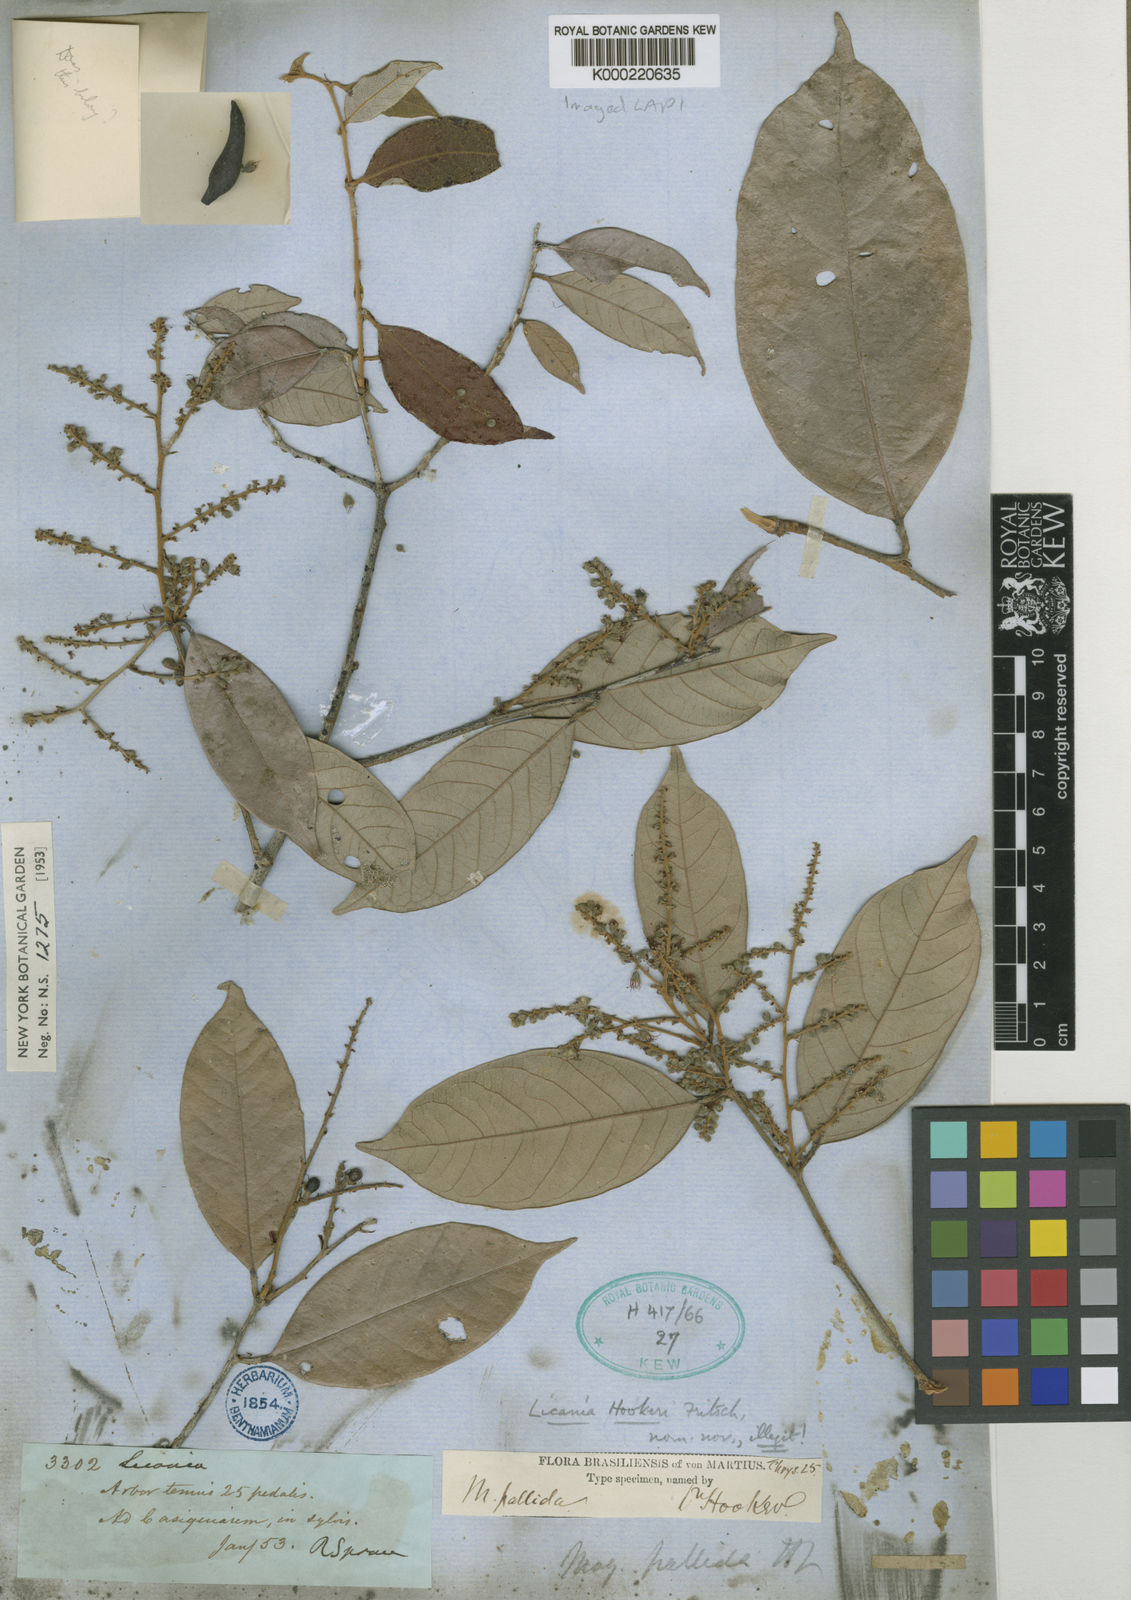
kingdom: Plantae
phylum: Tracheophyta
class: Magnoliopsida
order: Malpighiales
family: Chrysobalanaceae
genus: Licania
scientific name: Licania octandra
